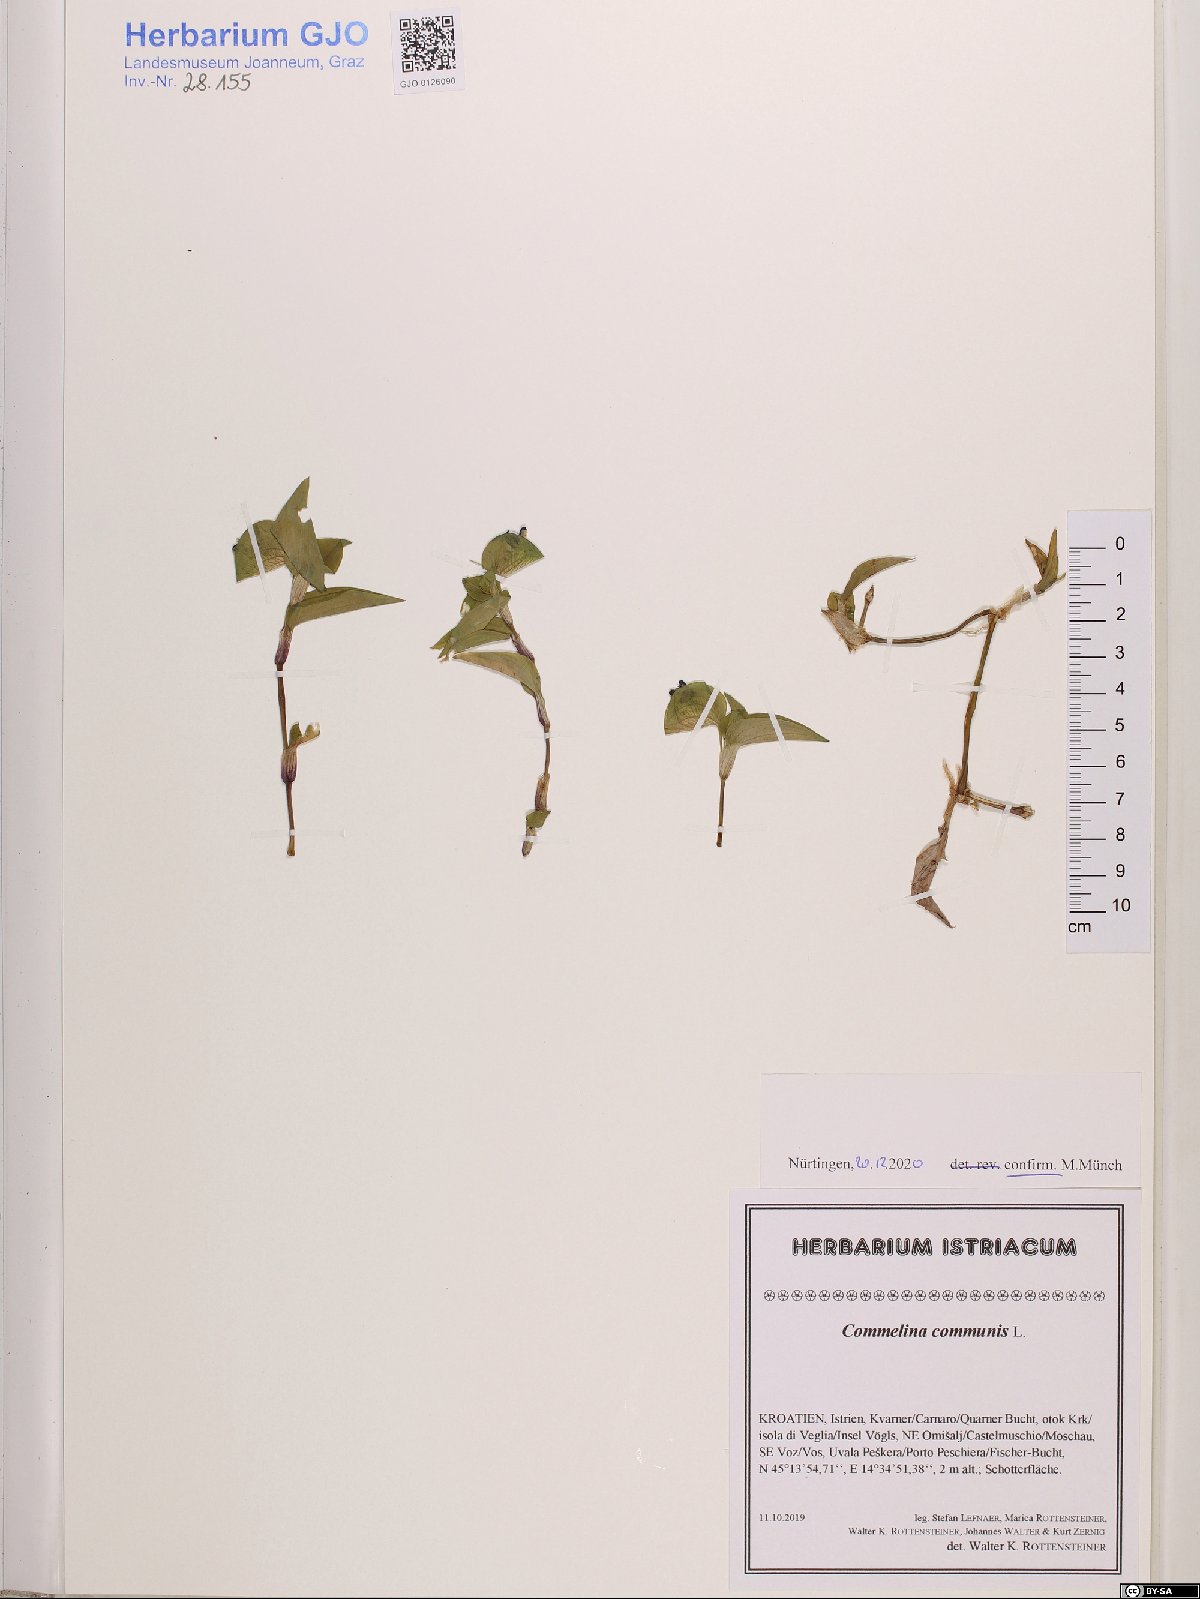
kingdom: Plantae
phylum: Tracheophyta
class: Liliopsida
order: Commelinales
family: Commelinaceae
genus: Commelina
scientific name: Commelina communis
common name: Asiatic dayflower
